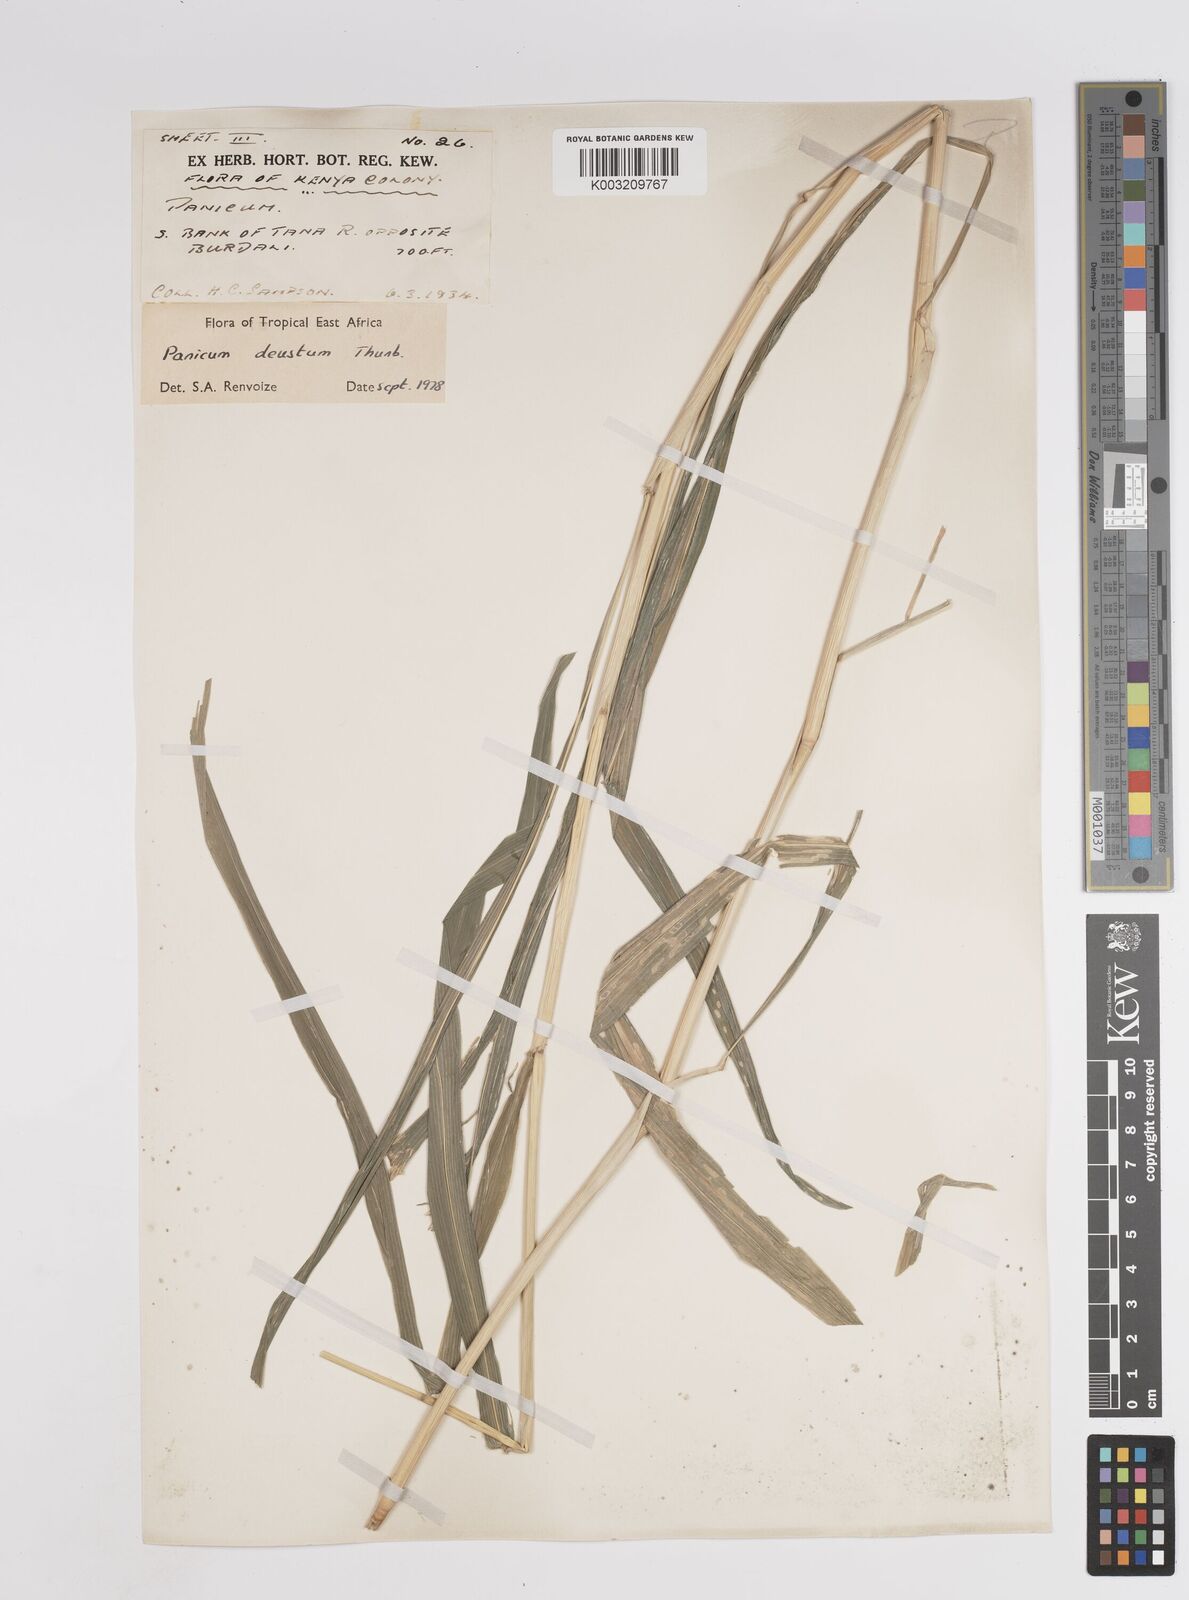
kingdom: Plantae
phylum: Tracheophyta
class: Liliopsida
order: Poales
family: Poaceae
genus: Panicum
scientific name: Panicum
